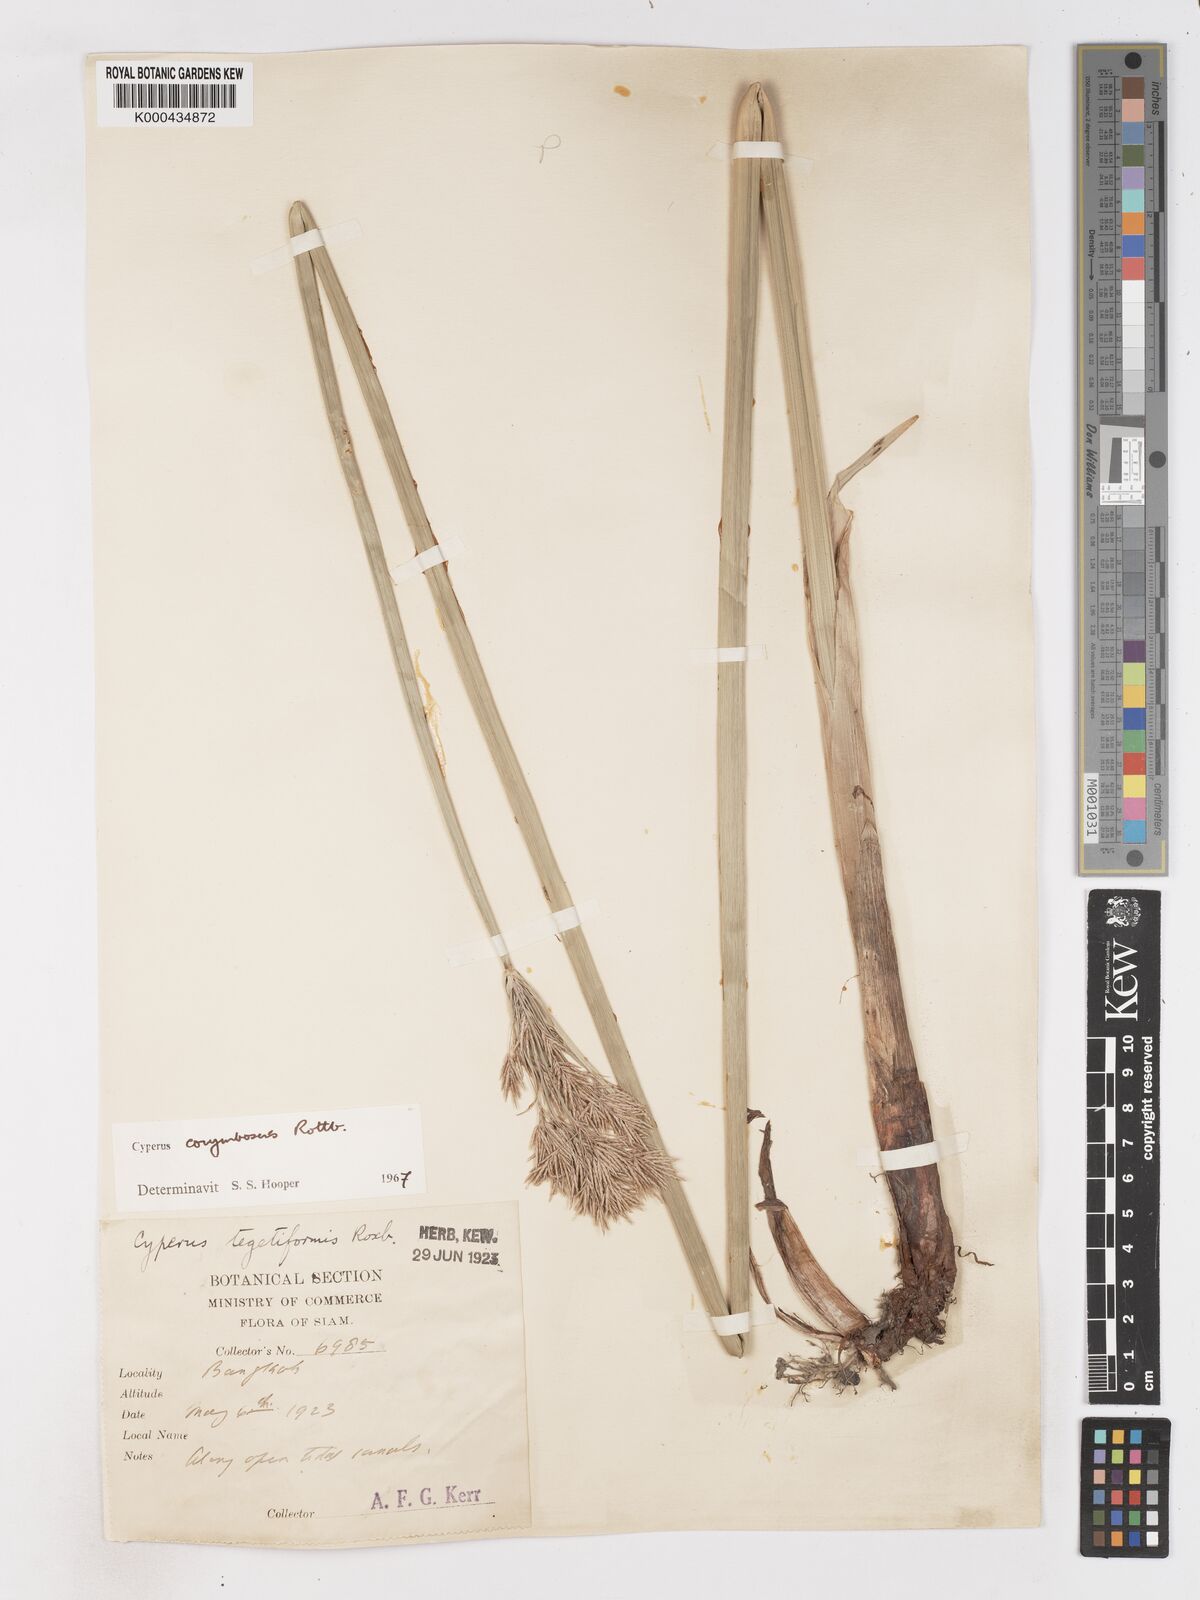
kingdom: Plantae
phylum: Tracheophyta
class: Liliopsida
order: Poales
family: Cyperaceae
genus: Cyperus
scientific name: Cyperus corymbosus
